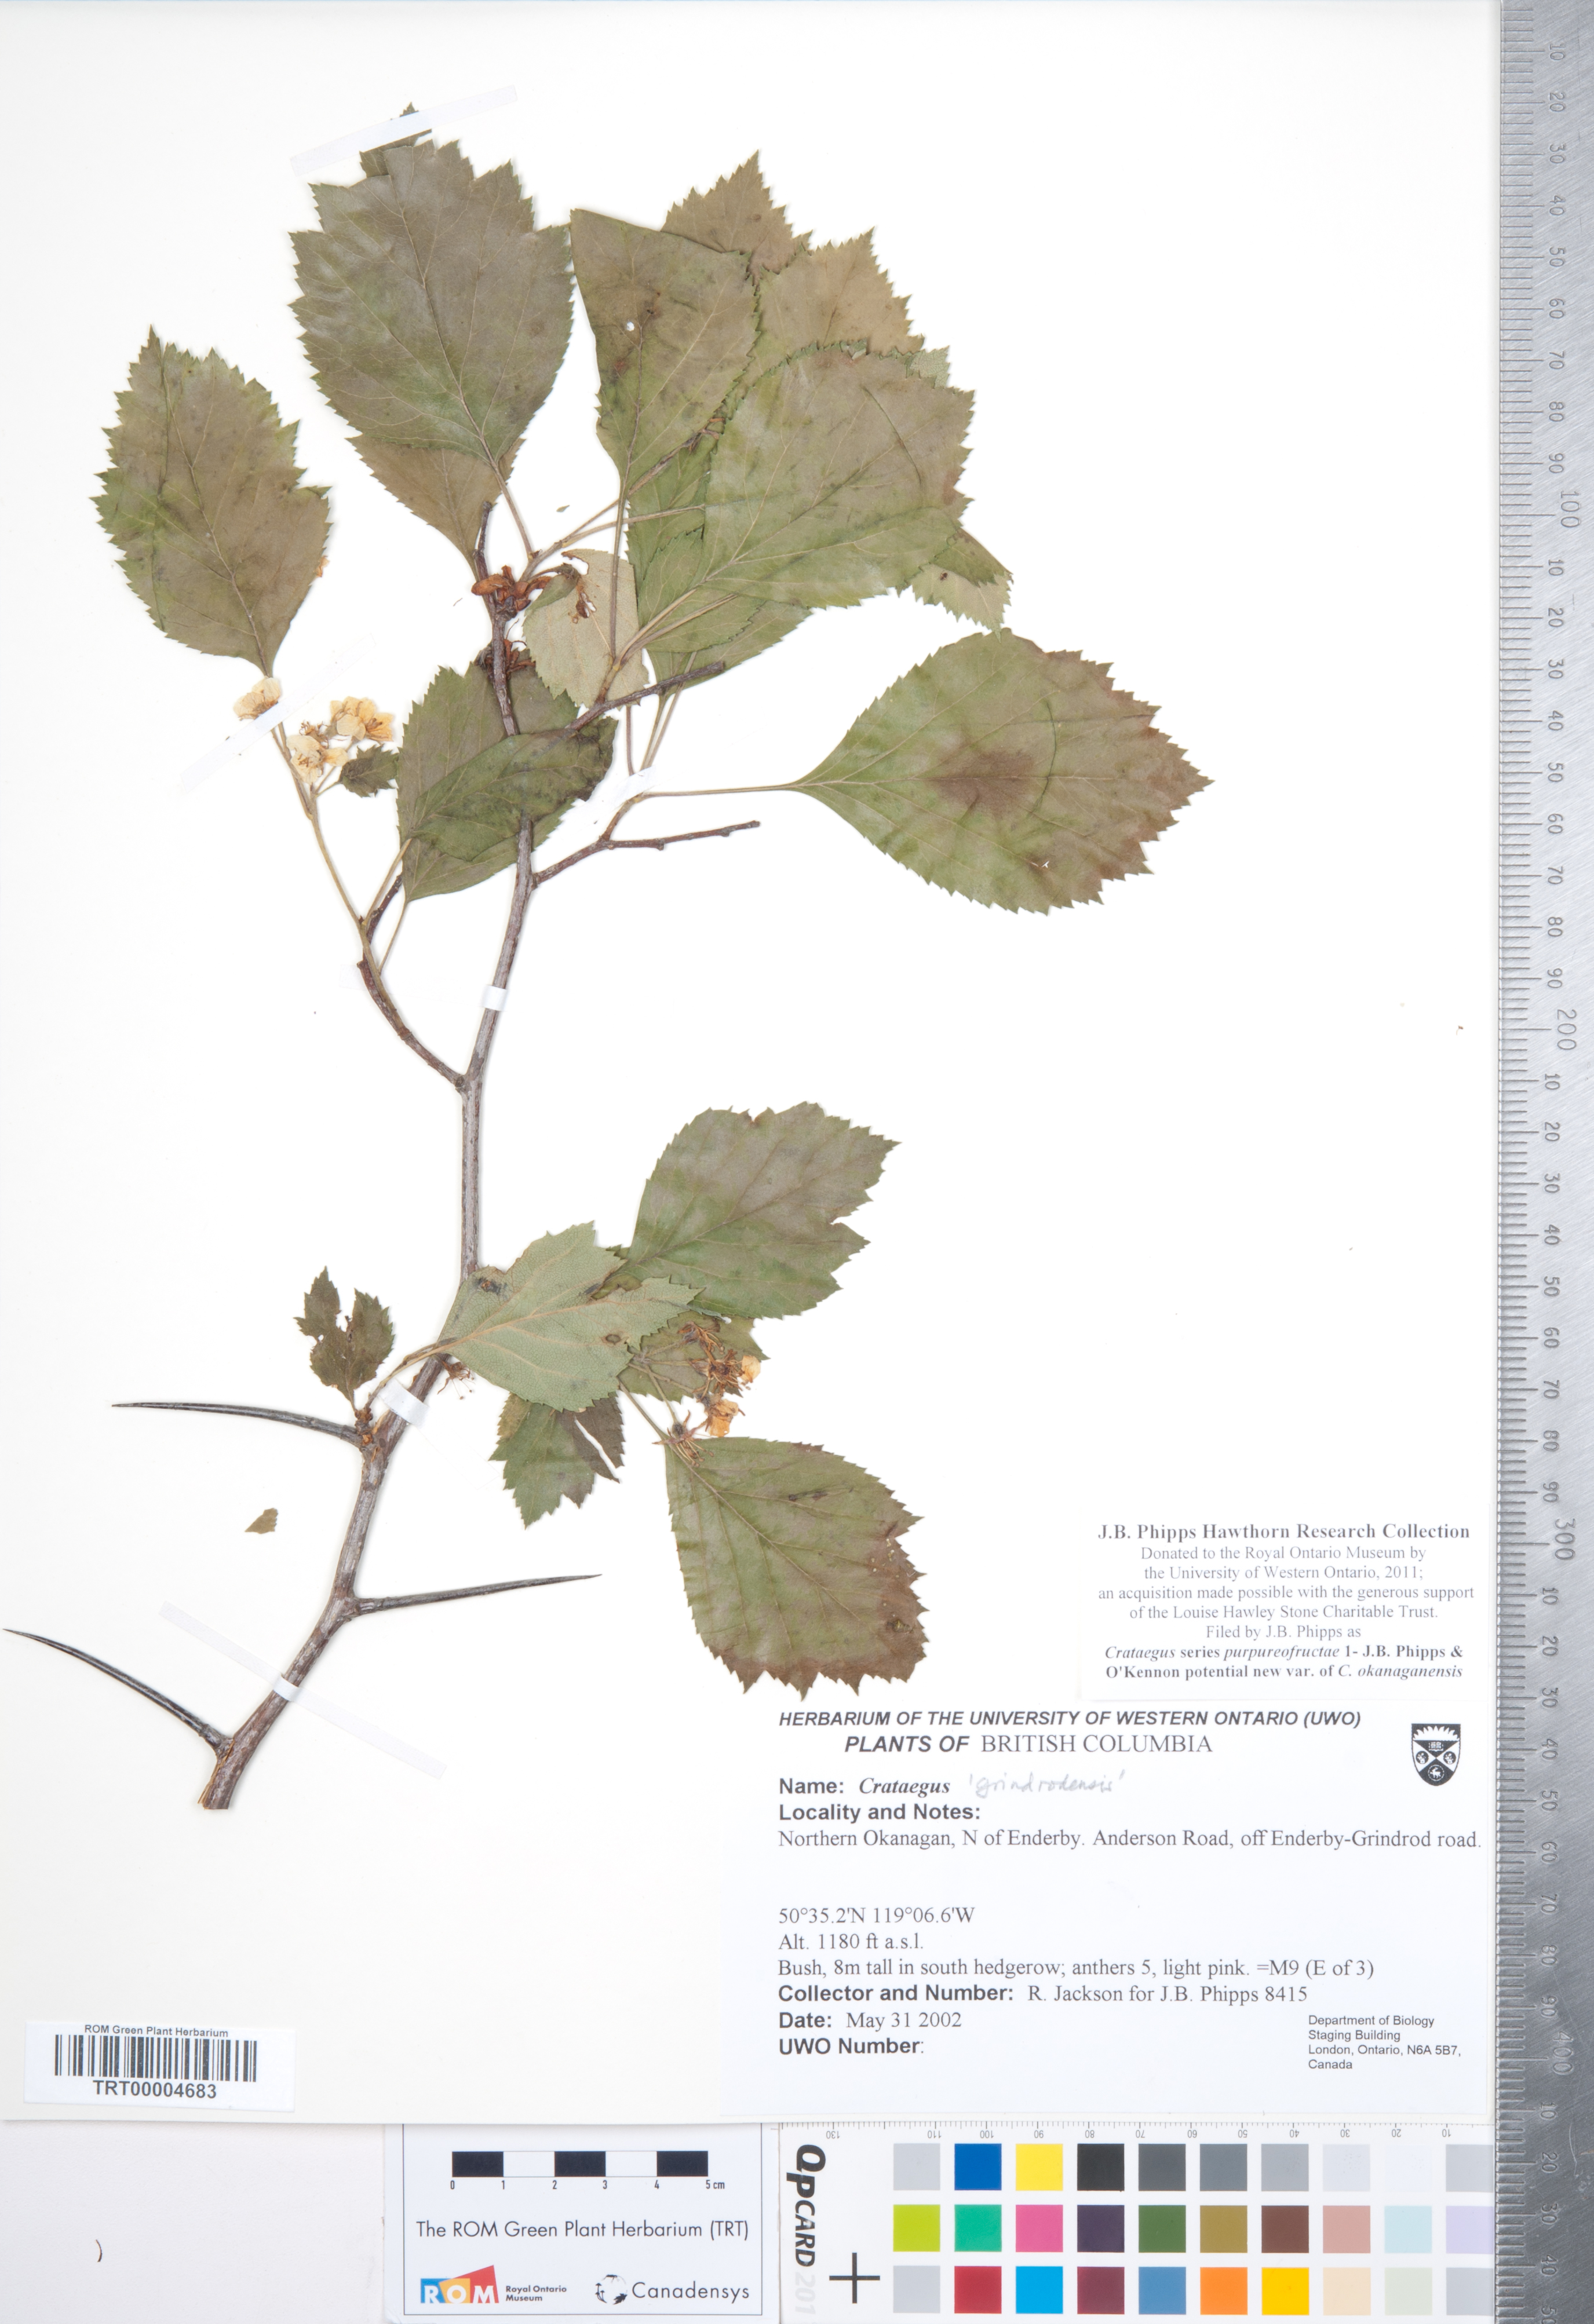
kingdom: Plantae
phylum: Tracheophyta
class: Magnoliopsida
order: Rosales
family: Rosaceae
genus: Crataegus
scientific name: Crataegus okanaganensis
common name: Okanagan valley hawthorn
